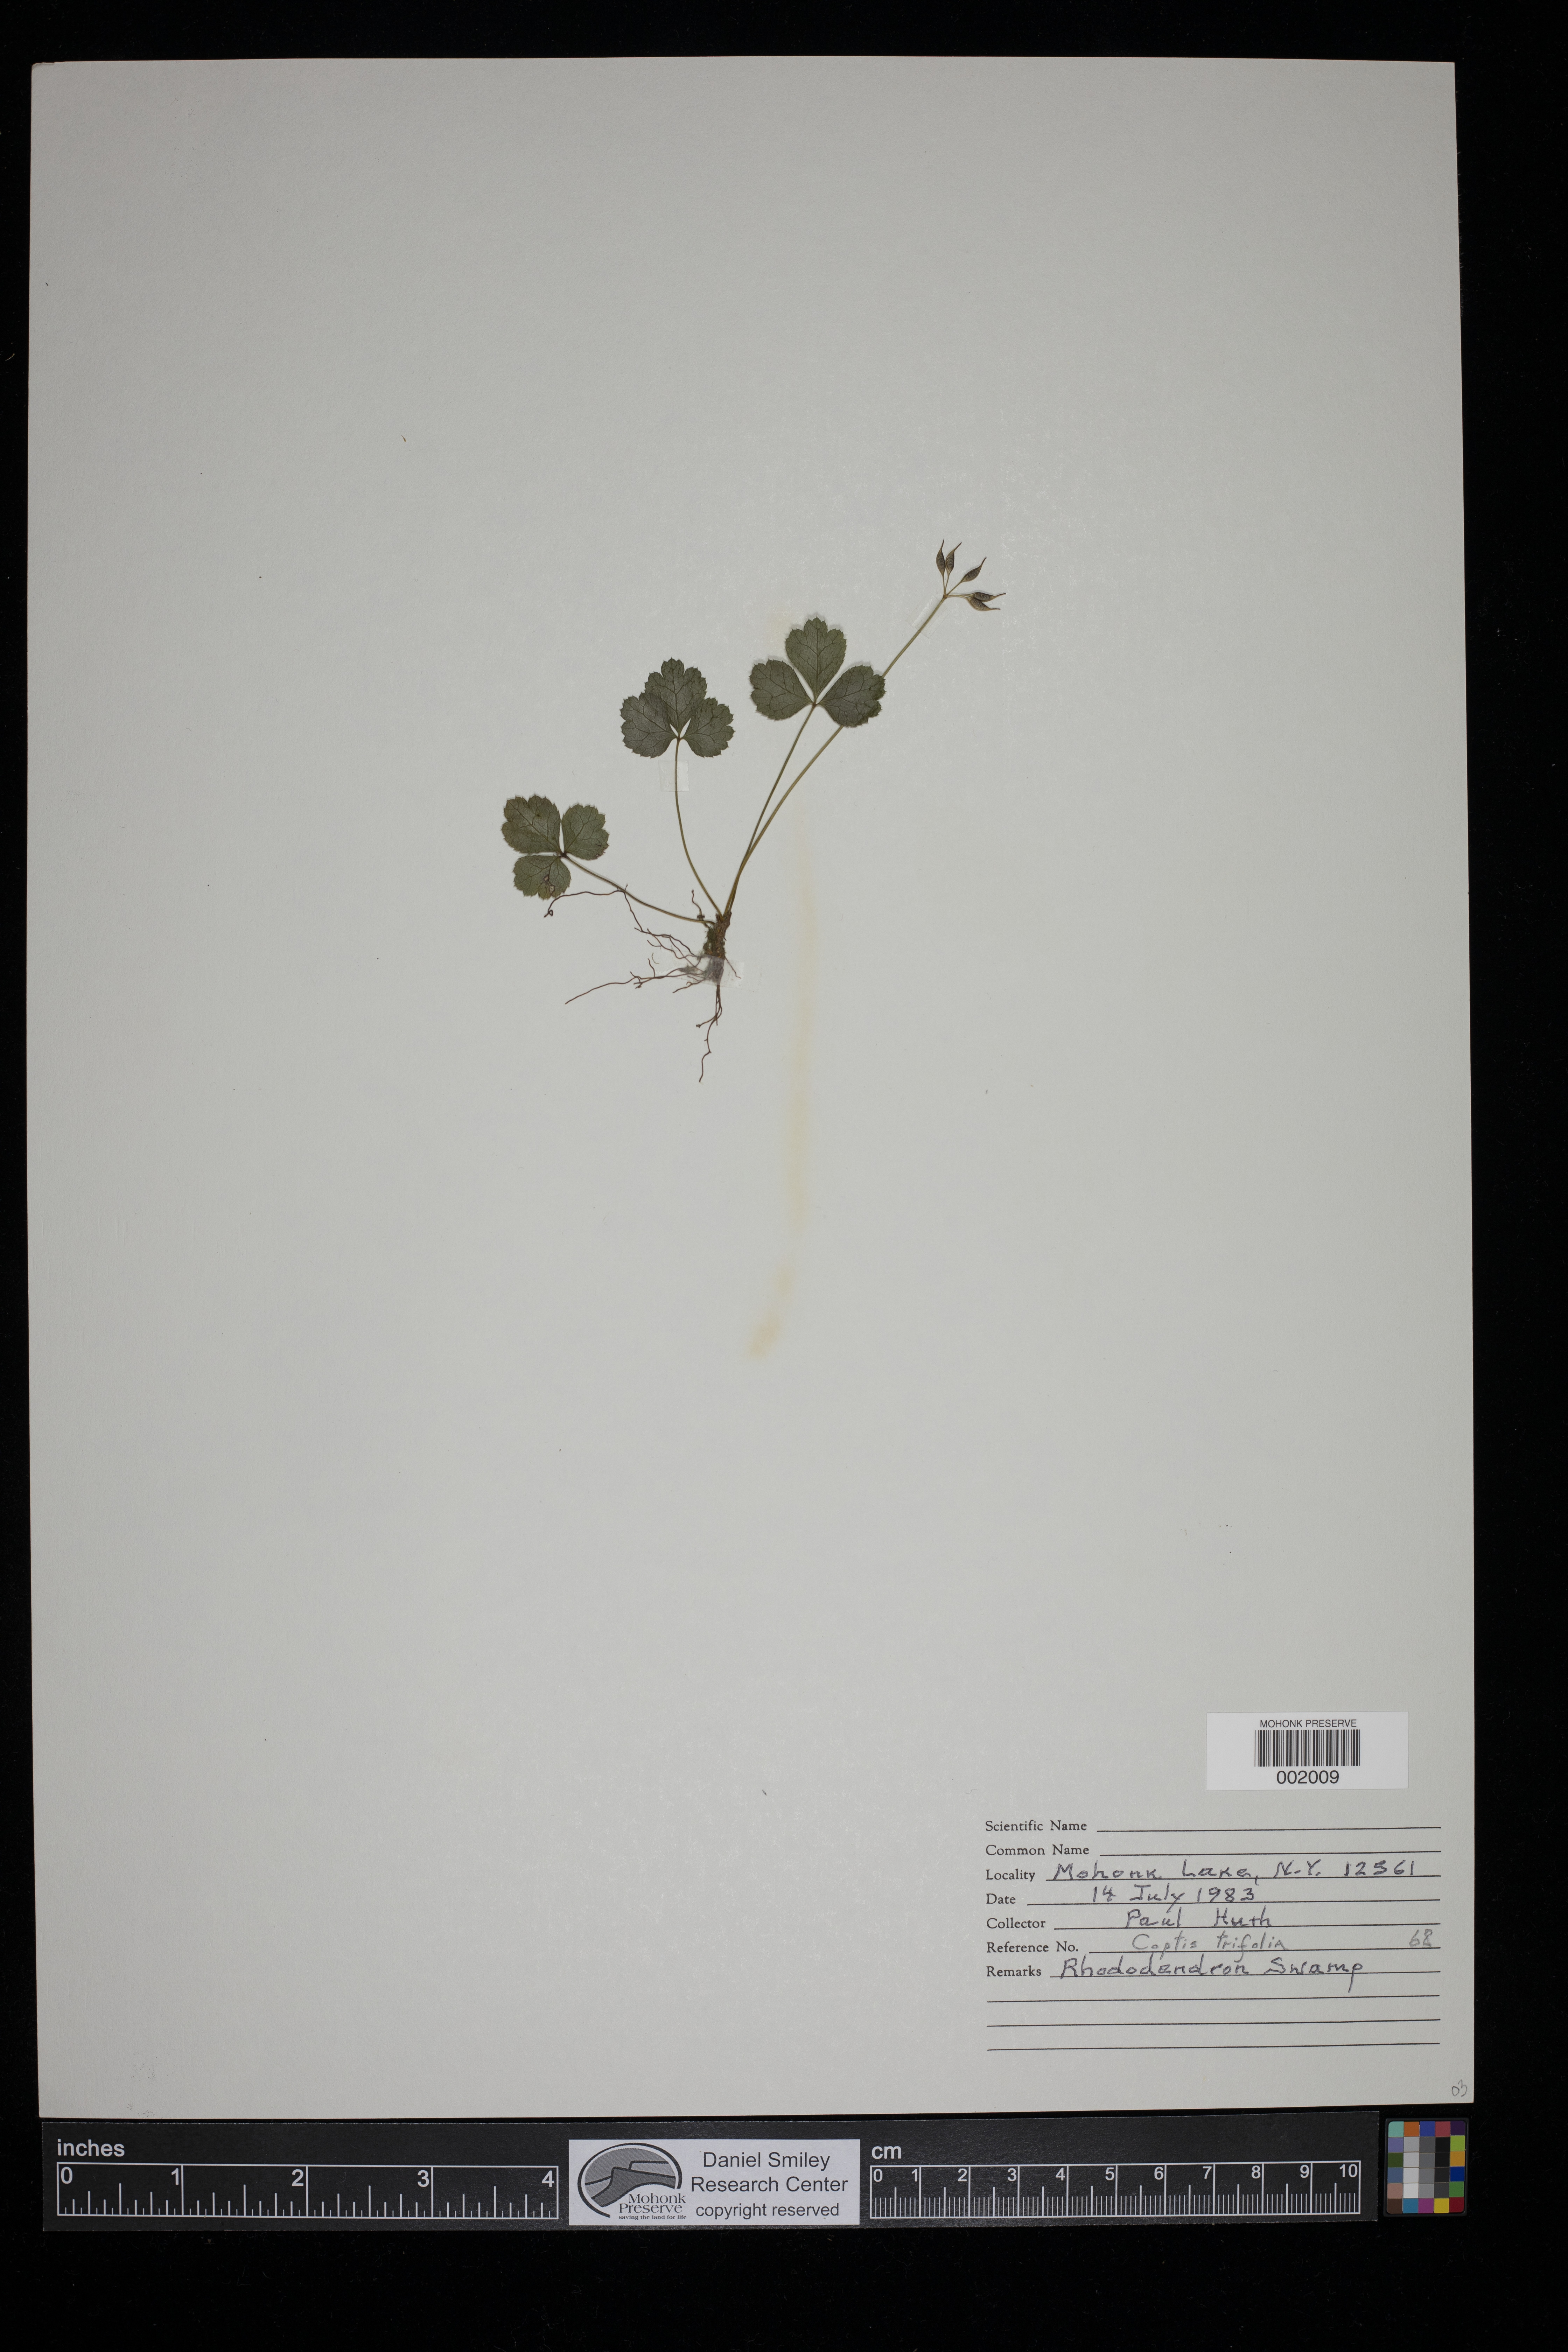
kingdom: Plantae
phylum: Tracheophyta
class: Magnoliopsida
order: Ranunculales
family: Ranunculaceae
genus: Coptis
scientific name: Coptis trifolia
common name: Canker-root
